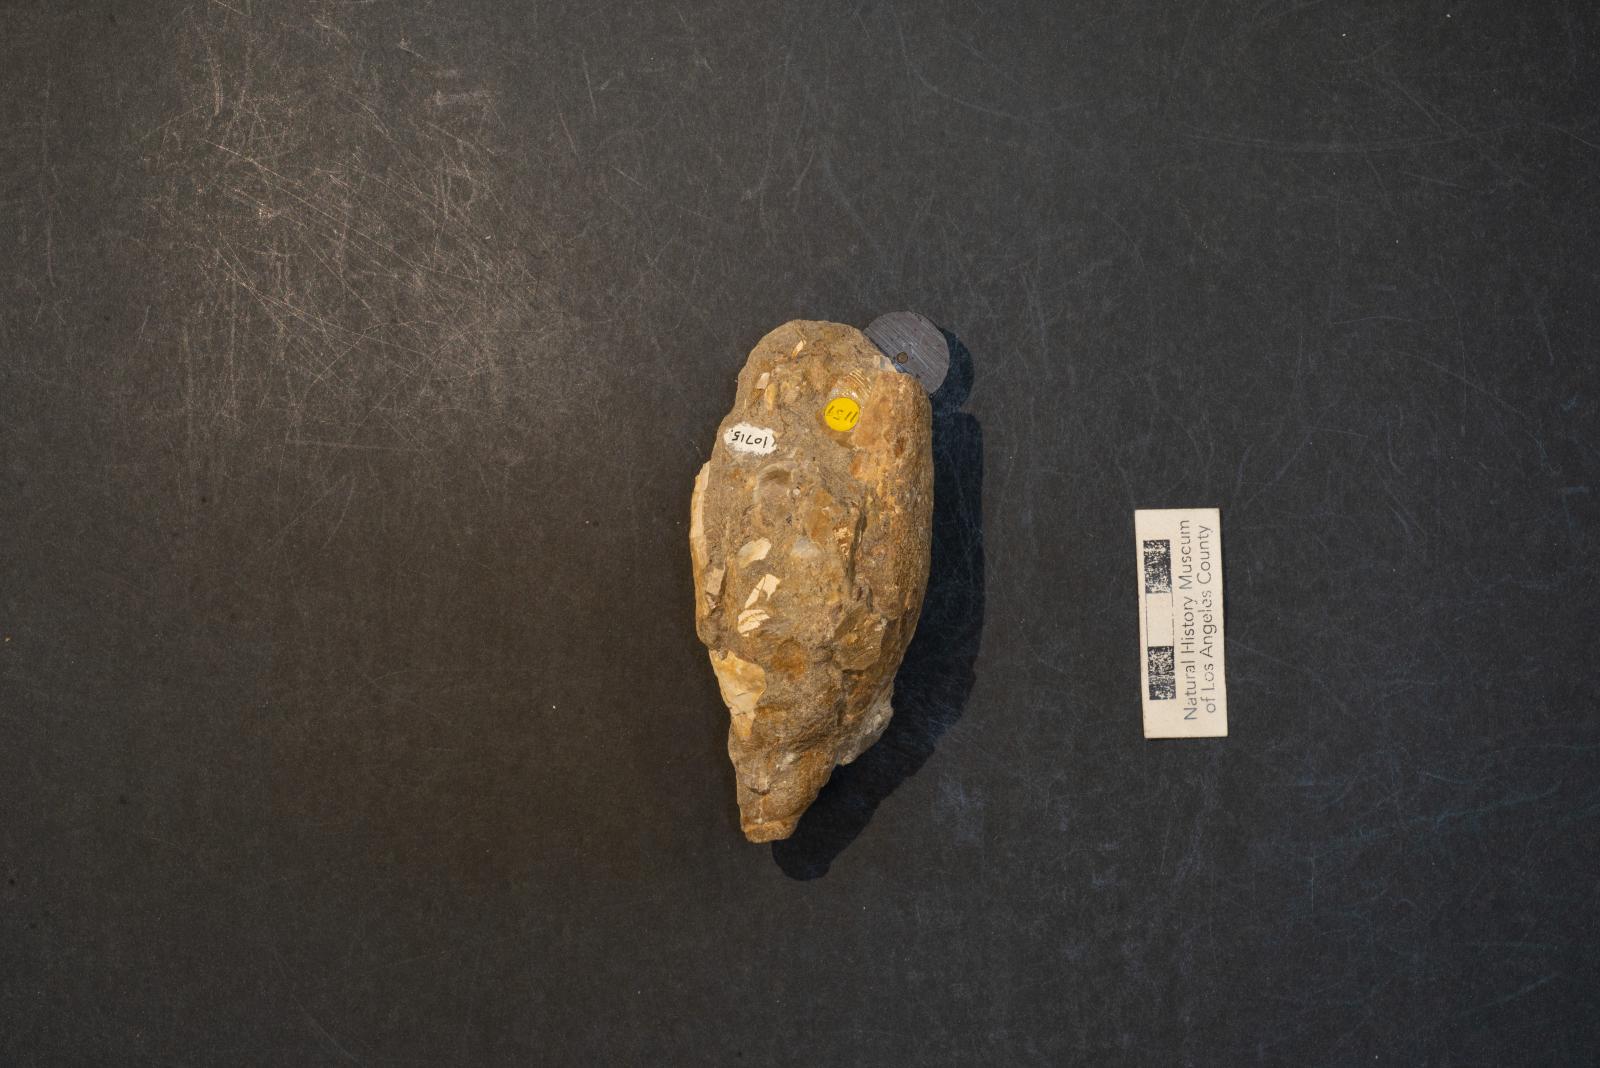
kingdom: Animalia
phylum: Mollusca
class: Gastropoda
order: Neogastropoda
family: Pholidotomidae
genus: Volutoderma
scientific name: Volutoderma angelica
